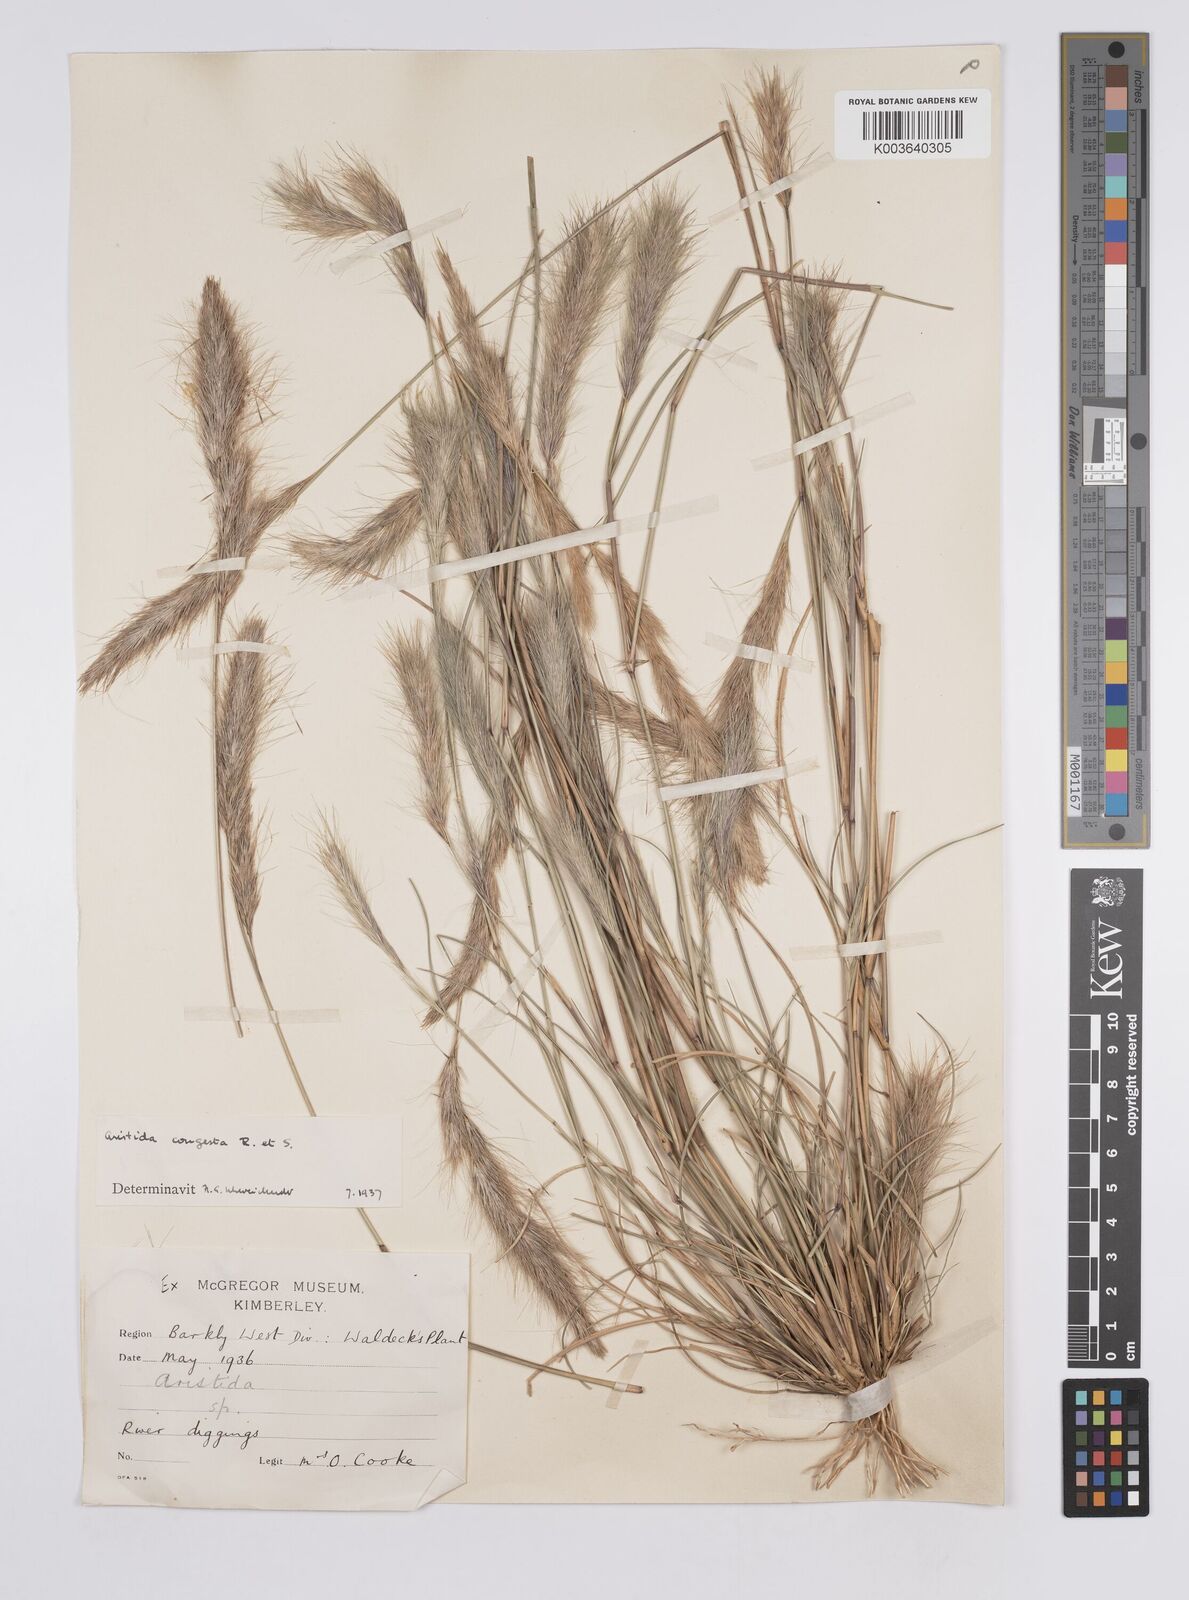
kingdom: Plantae
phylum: Tracheophyta
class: Liliopsida
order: Poales
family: Poaceae
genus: Aristida
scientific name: Aristida congesta
